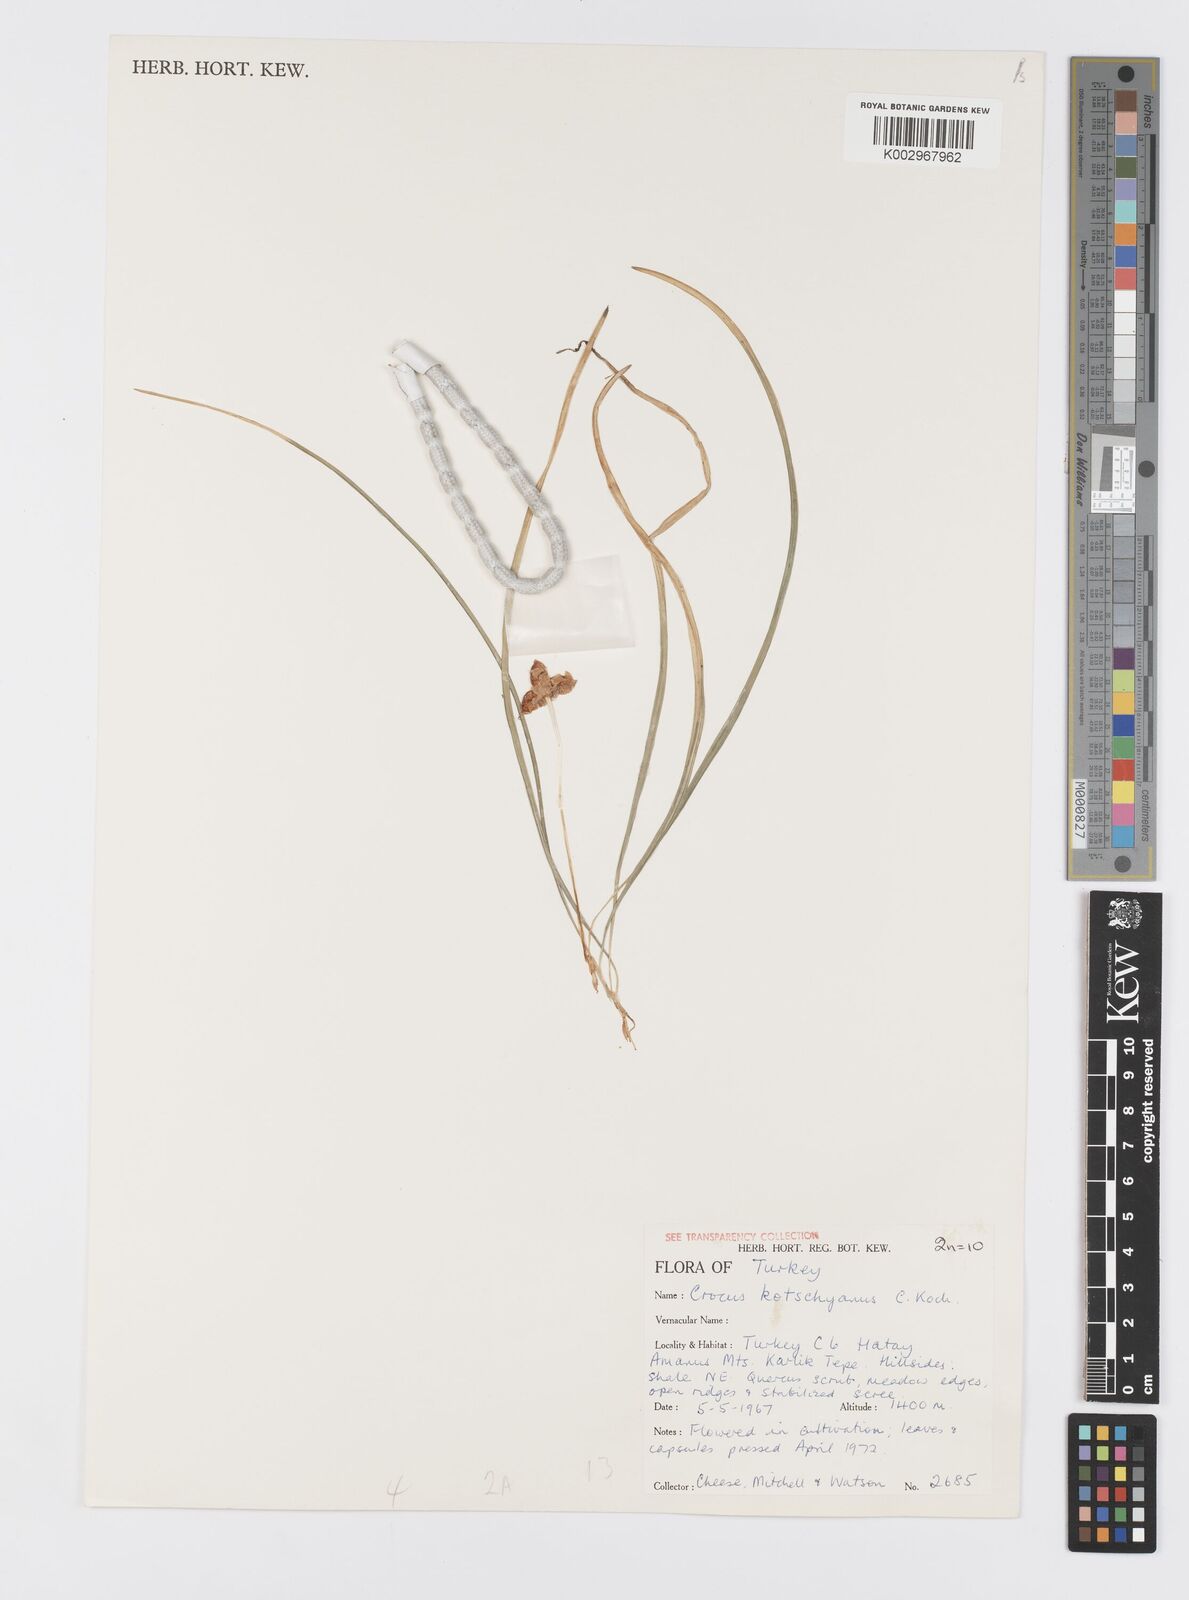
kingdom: Plantae
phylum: Tracheophyta
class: Liliopsida
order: Asparagales
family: Iridaceae
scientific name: Iridaceae
